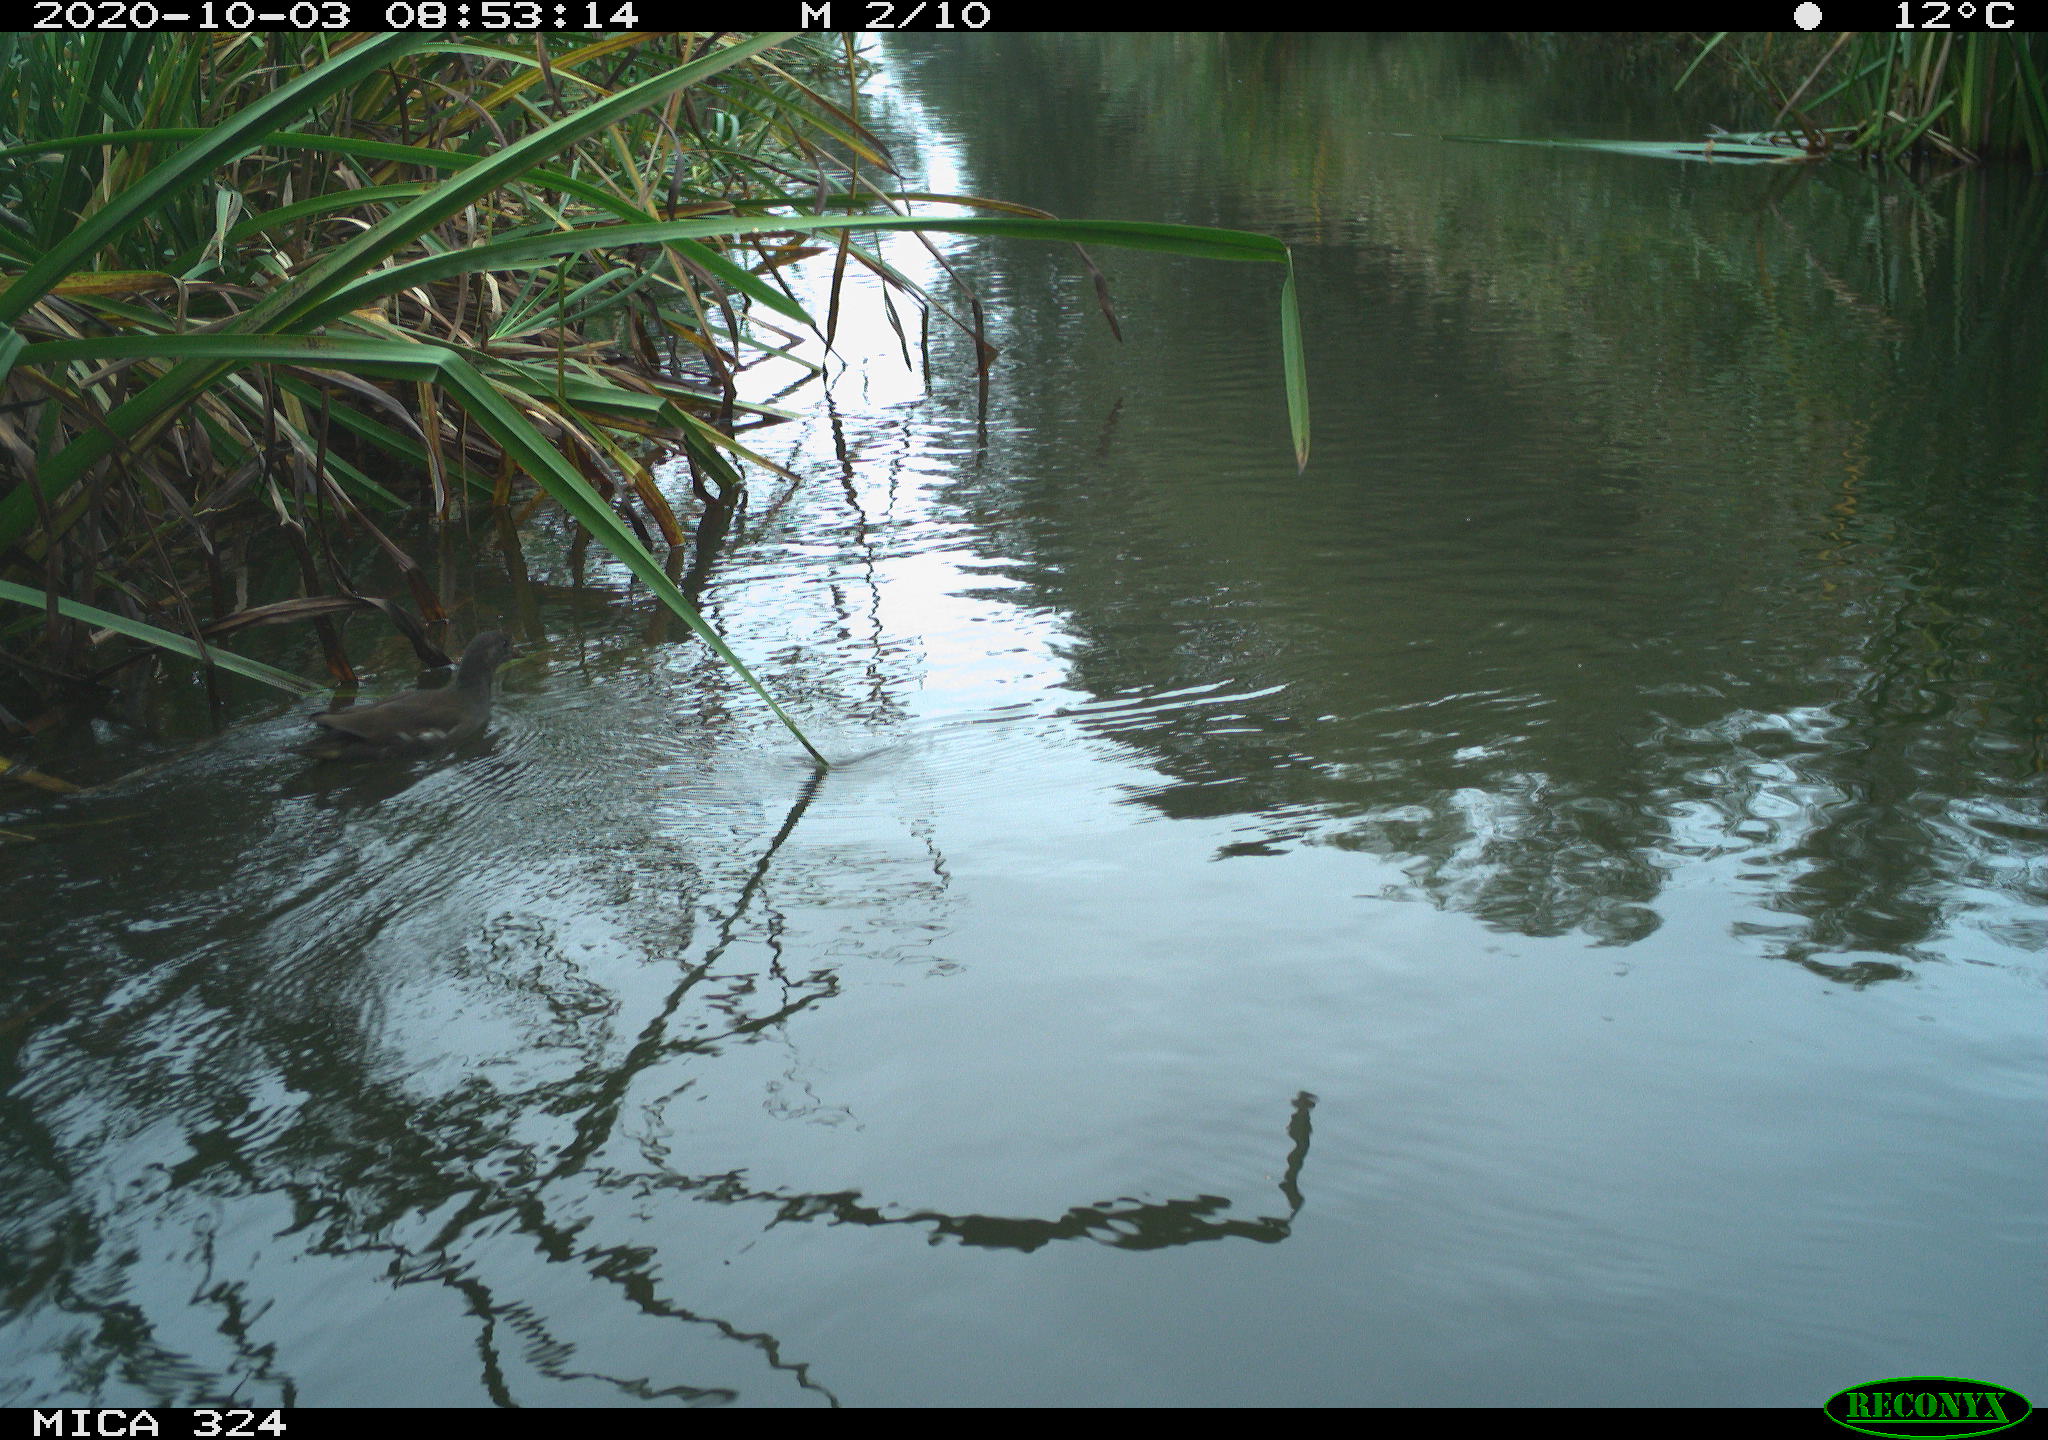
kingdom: Animalia
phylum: Chordata
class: Aves
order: Gruiformes
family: Rallidae
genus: Gallinula
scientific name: Gallinula chloropus
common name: Common moorhen
